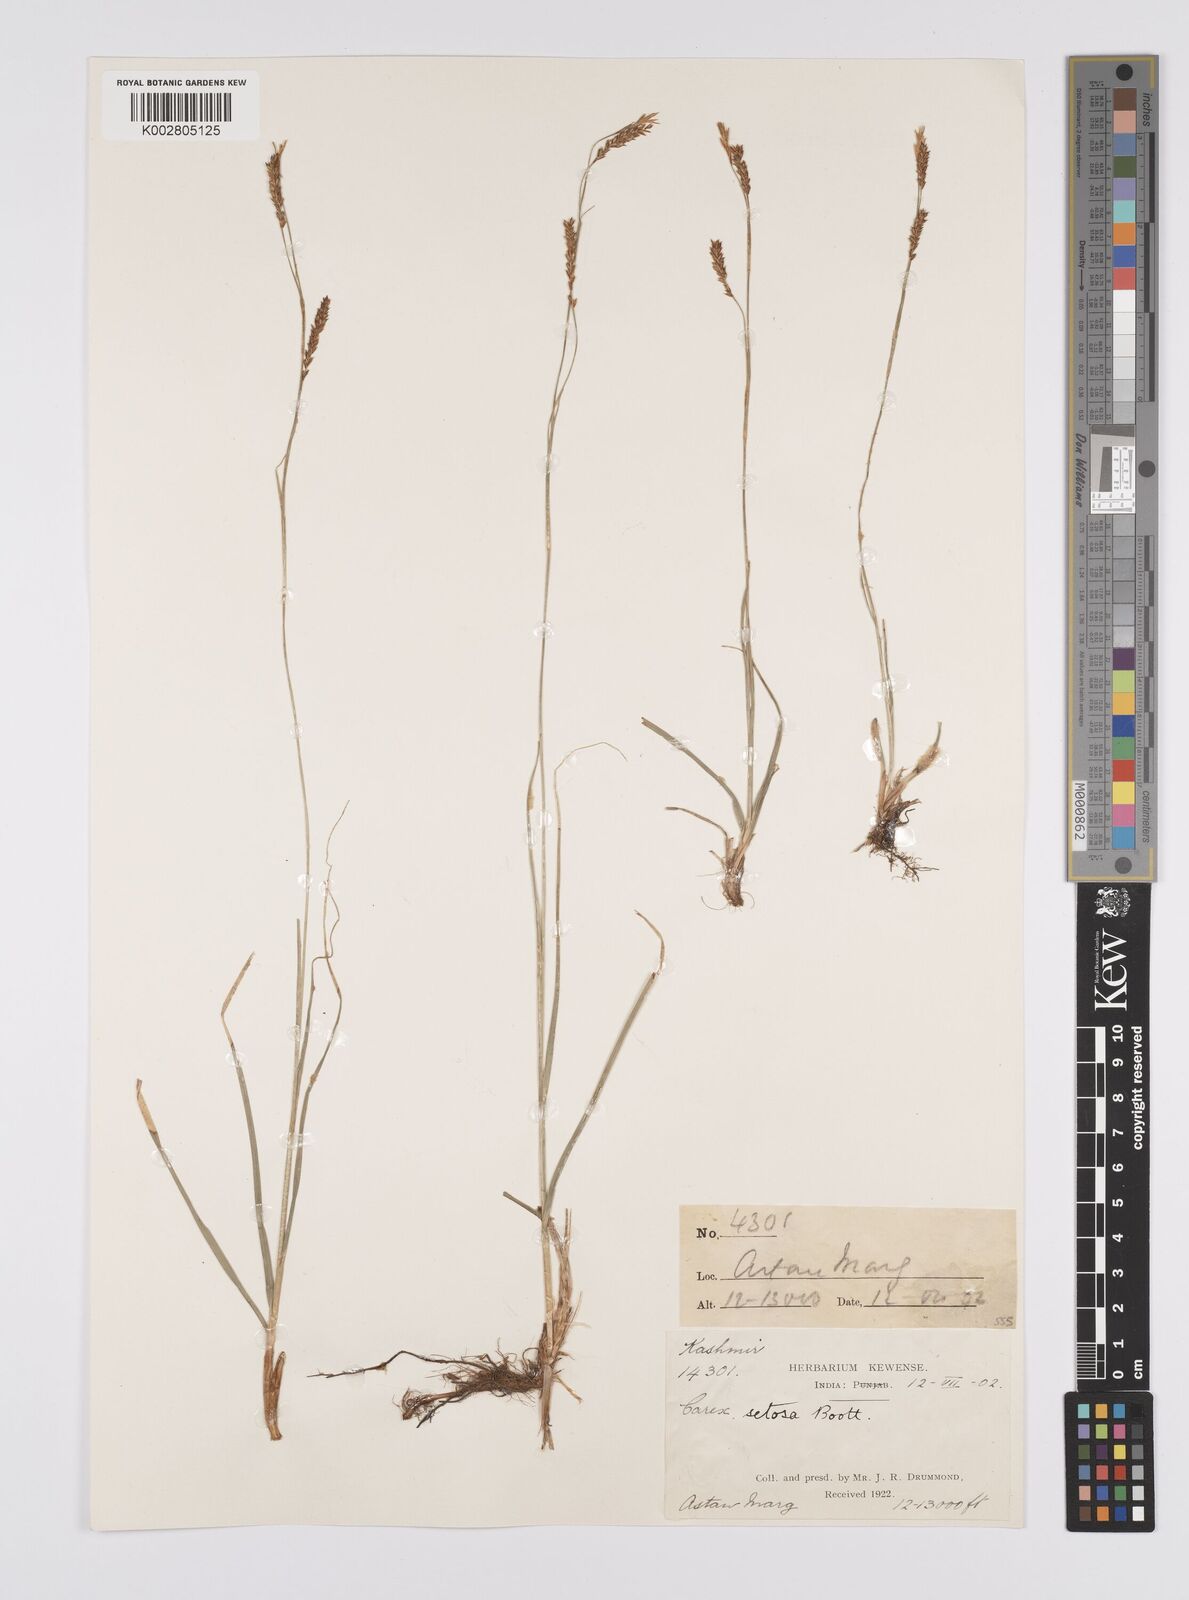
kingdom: Plantae
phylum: Tracheophyta
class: Liliopsida
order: Poales
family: Cyperaceae
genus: Carex
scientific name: Carex setosa
